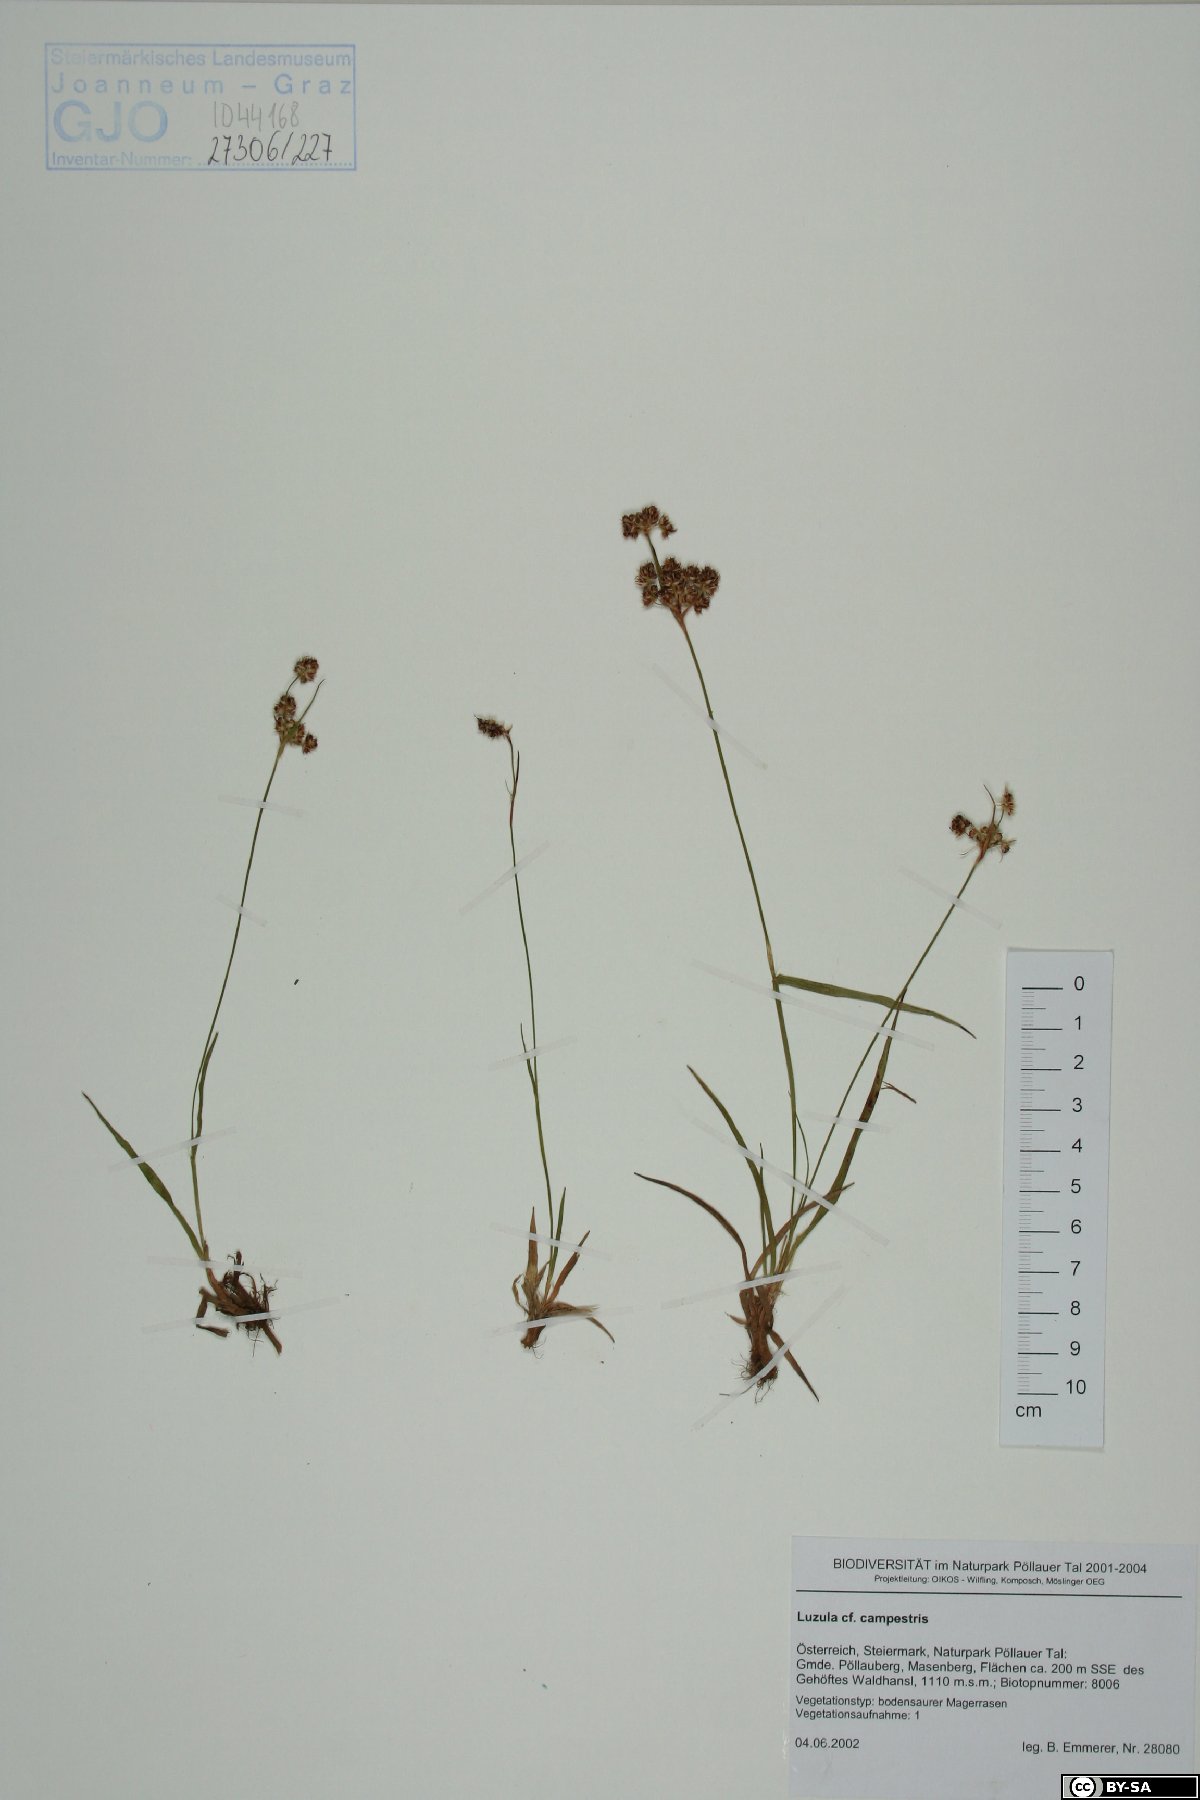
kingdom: Plantae
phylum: Tracheophyta
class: Liliopsida
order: Poales
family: Juncaceae
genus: Luzula
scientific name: Luzula campestris
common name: Field wood-rush
